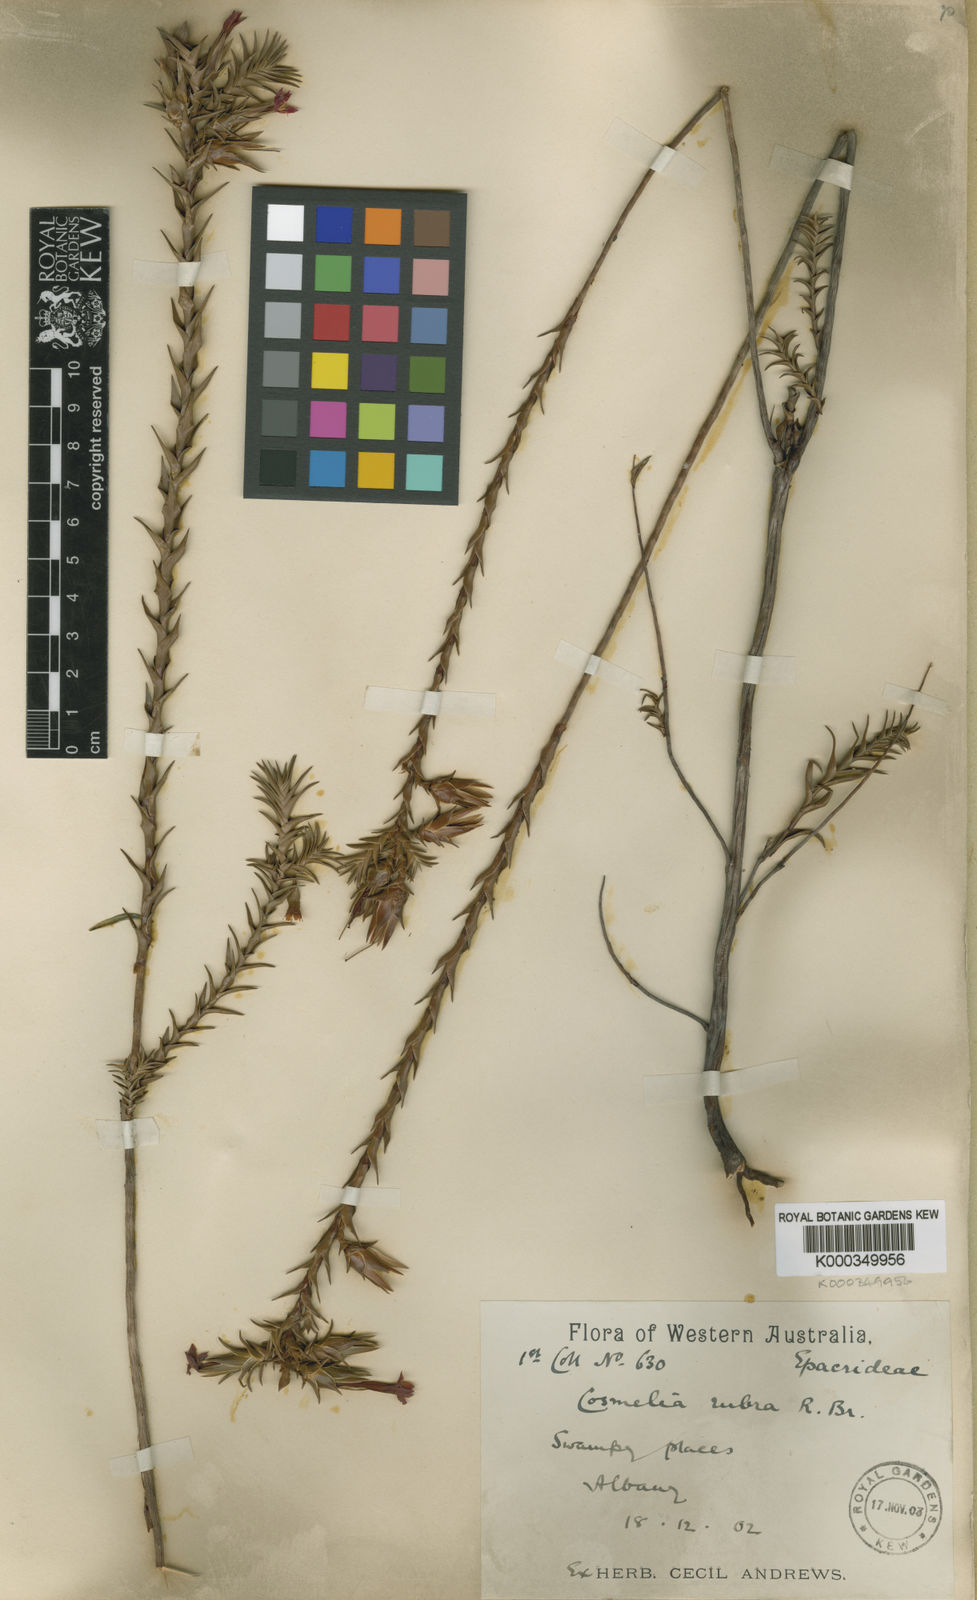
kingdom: Plantae
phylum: Tracheophyta
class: Magnoliopsida
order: Ericales
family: Ericaceae
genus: Cosmelia
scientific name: Cosmelia rubra
